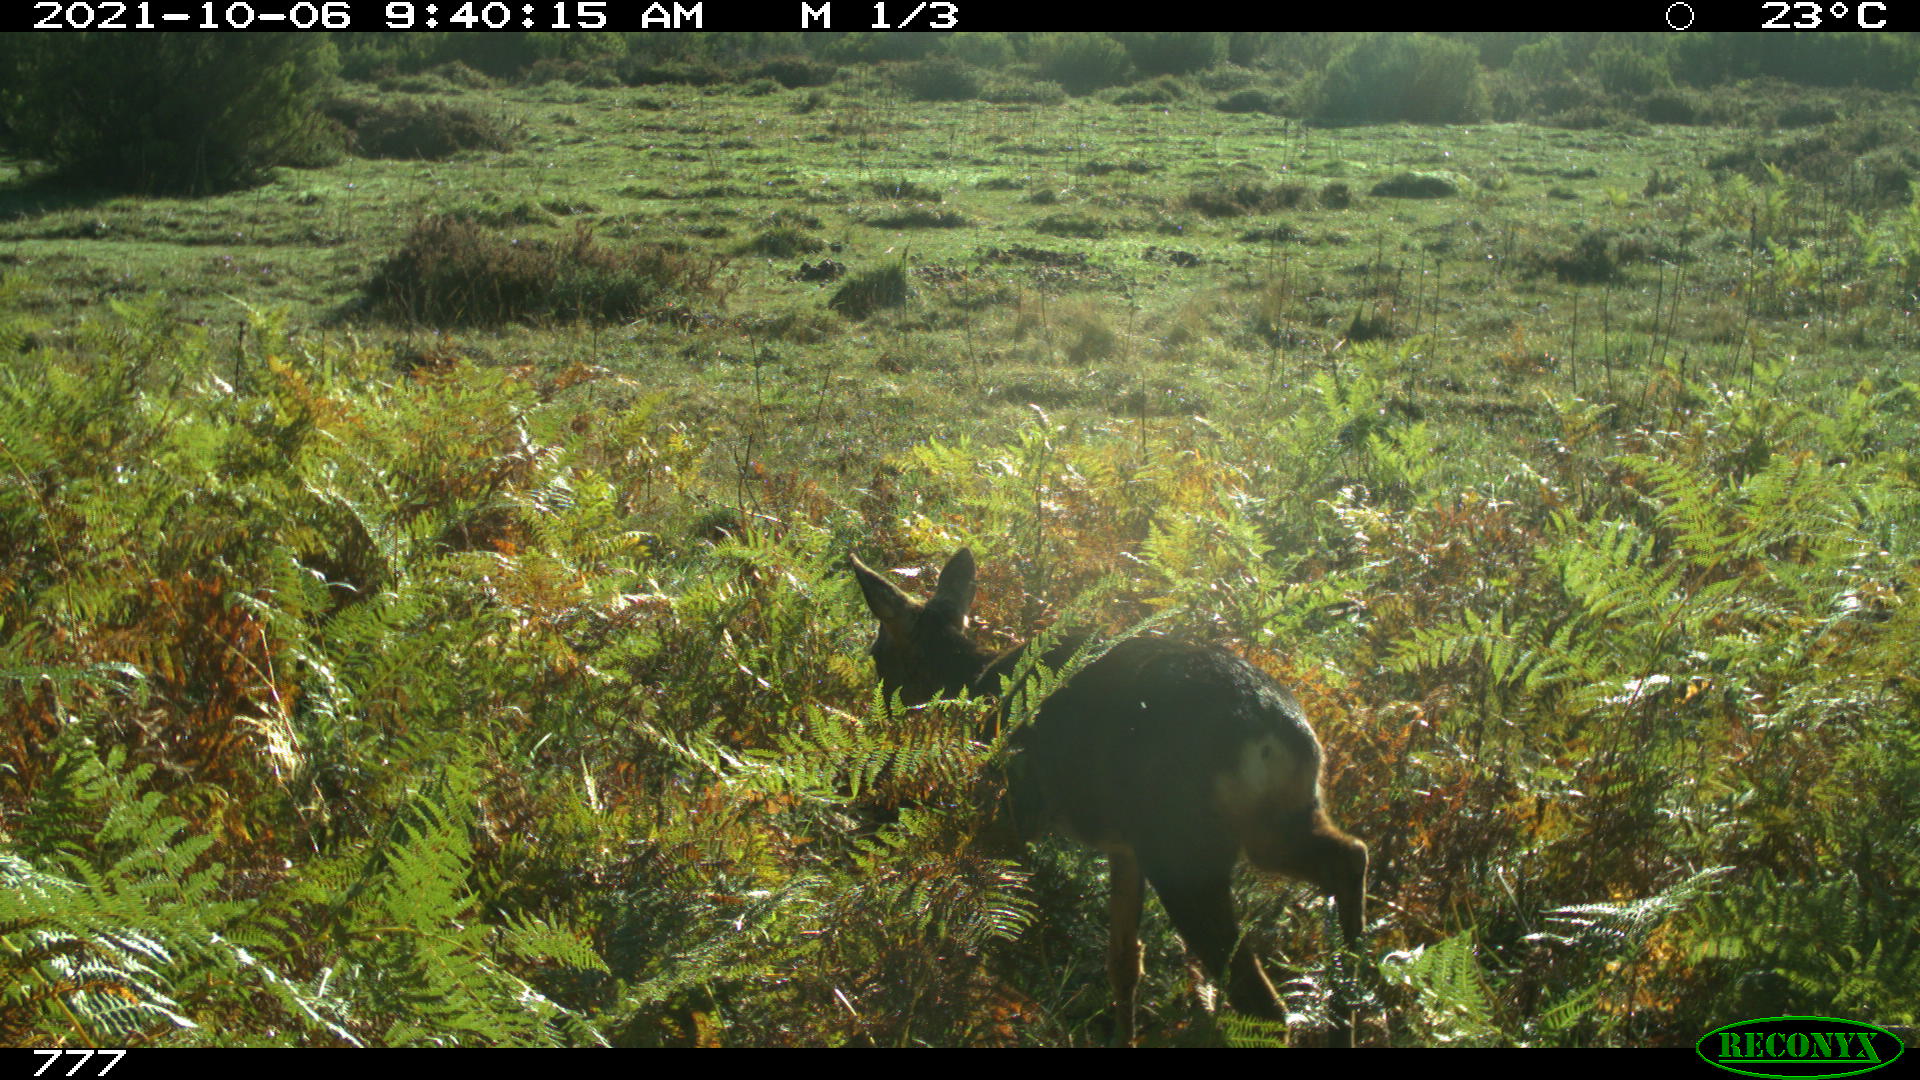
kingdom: Animalia
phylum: Chordata
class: Mammalia
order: Artiodactyla
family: Cervidae
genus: Capreolus
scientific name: Capreolus capreolus
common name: Western roe deer
